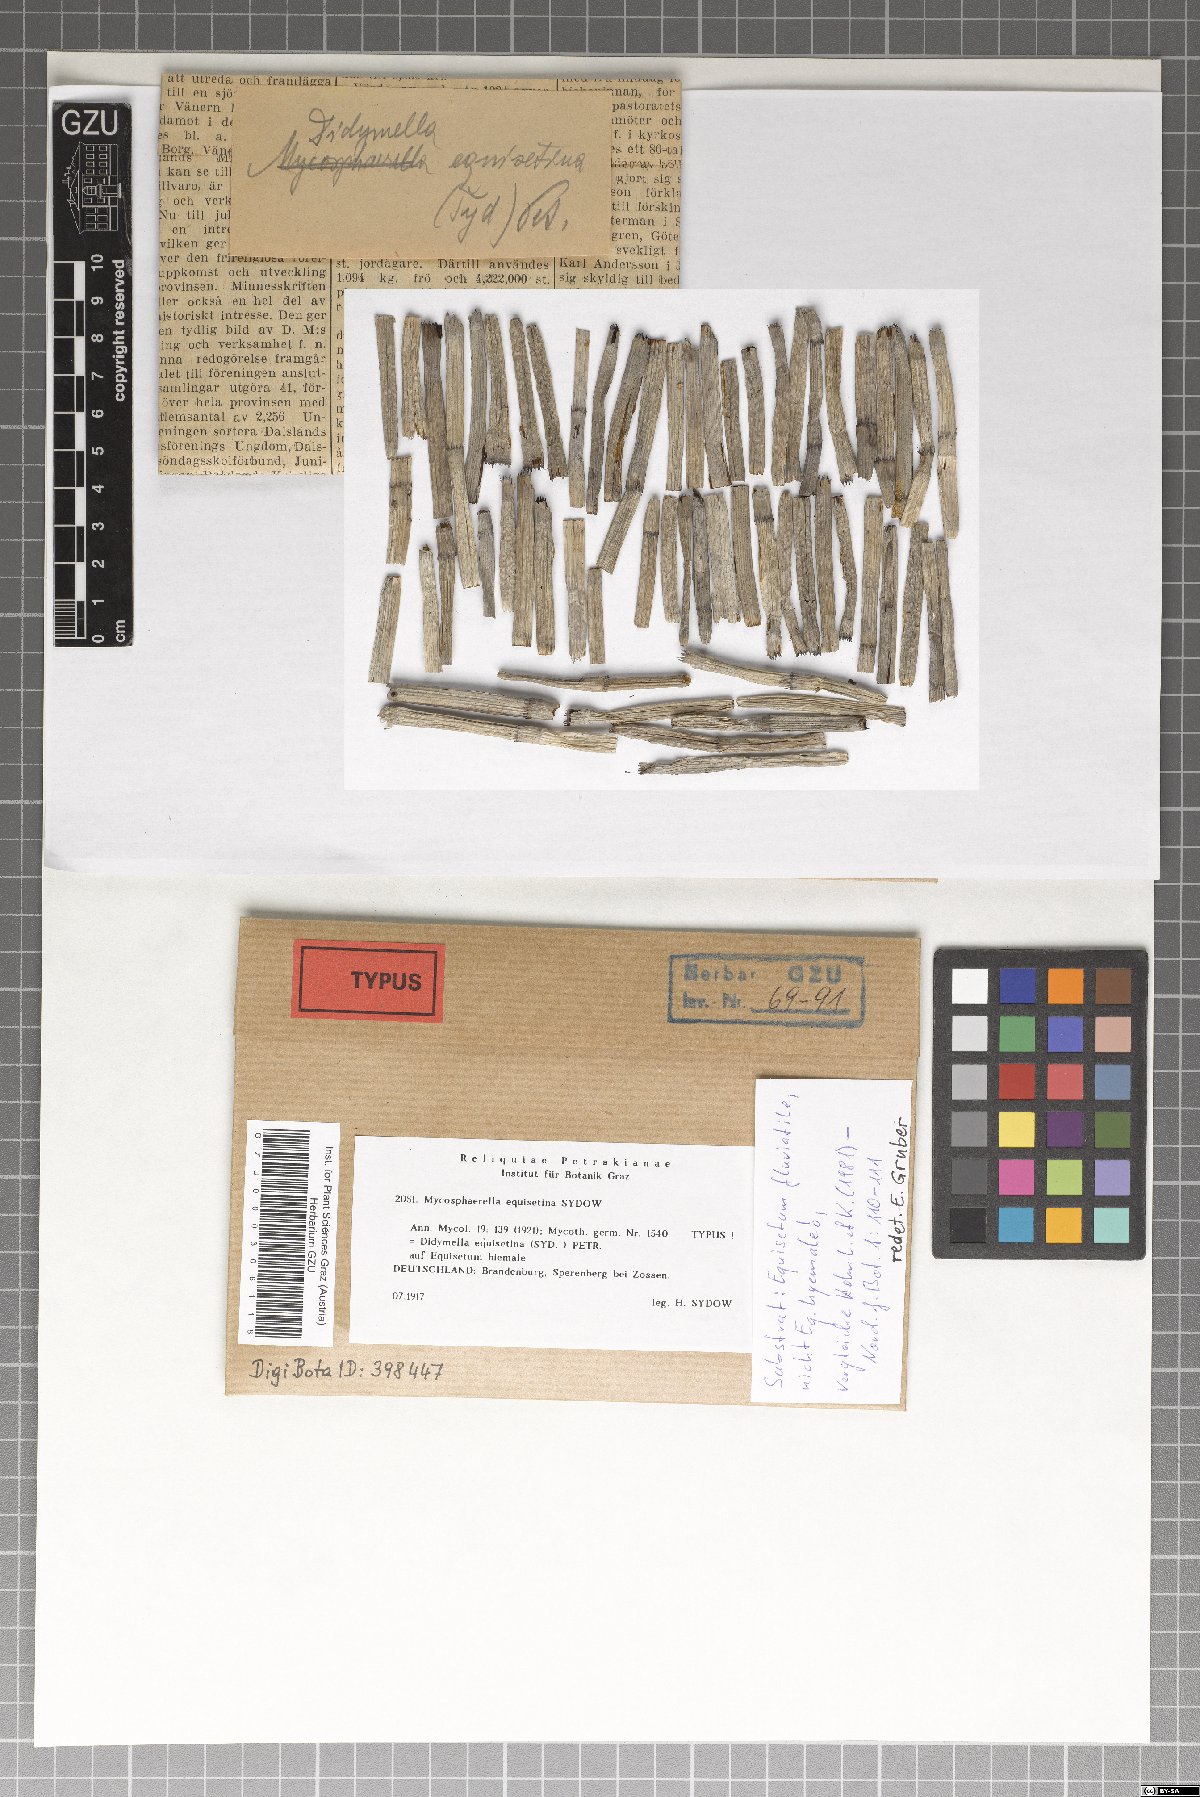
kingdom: Fungi
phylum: Ascomycota
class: Dothideomycetes
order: Mycosphaerellales
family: Mycosphaerellaceae
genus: Mycosphaerella
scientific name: Mycosphaerella equisetina
